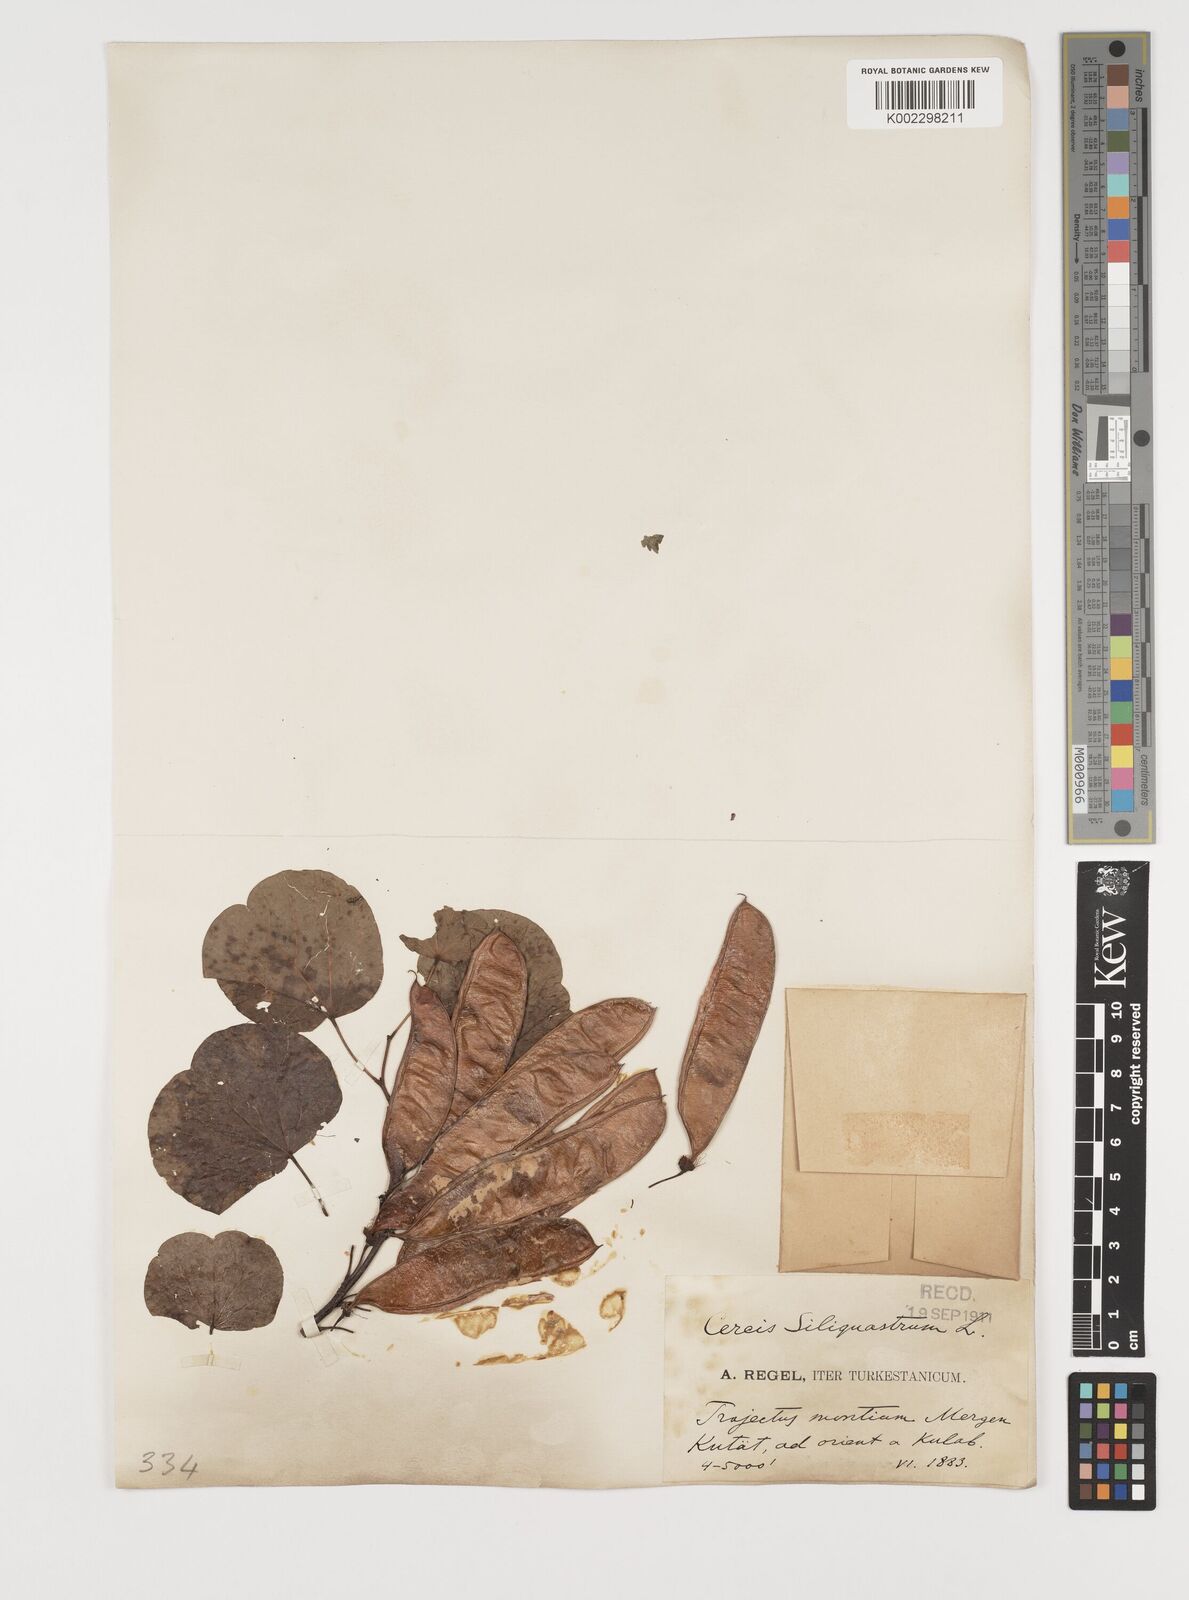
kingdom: Plantae
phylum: Tracheophyta
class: Magnoliopsida
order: Fabales
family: Fabaceae
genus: Cercis
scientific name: Cercis
